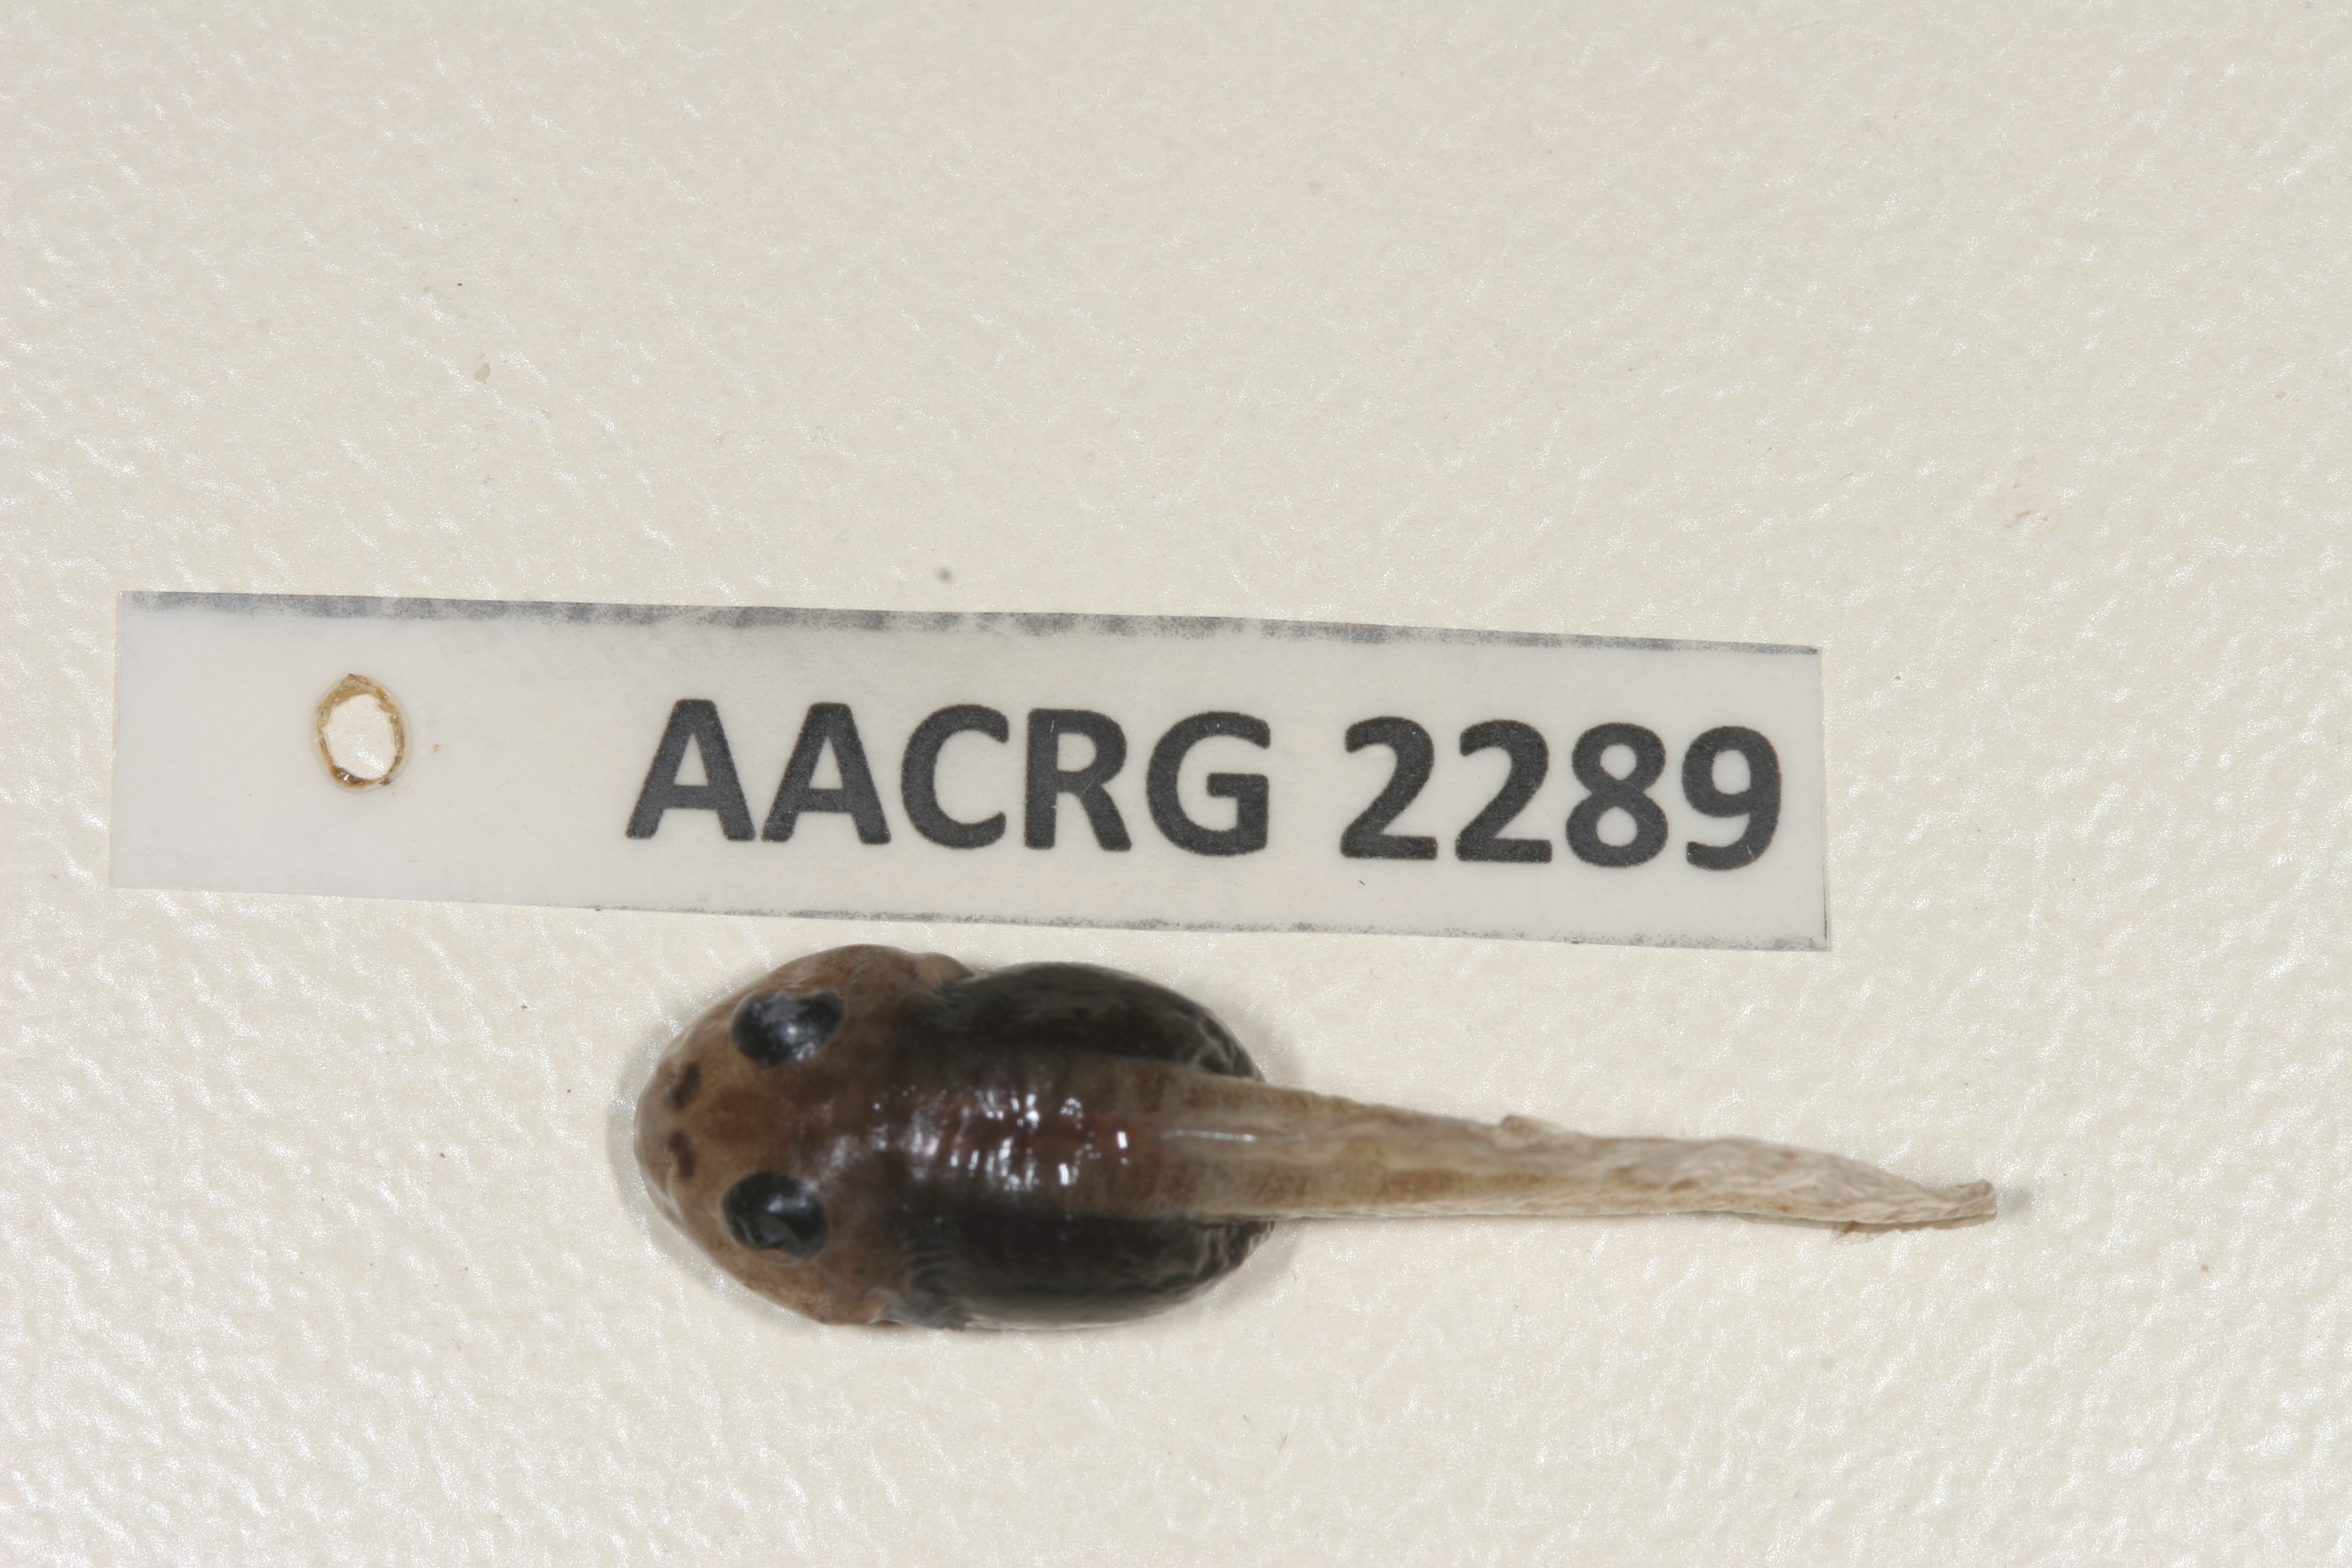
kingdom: Animalia
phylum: Chordata
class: Amphibia
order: Anura
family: Pyxicephalidae
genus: Tomopterna
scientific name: Tomopterna tandyi
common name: Tandy's sand frog
